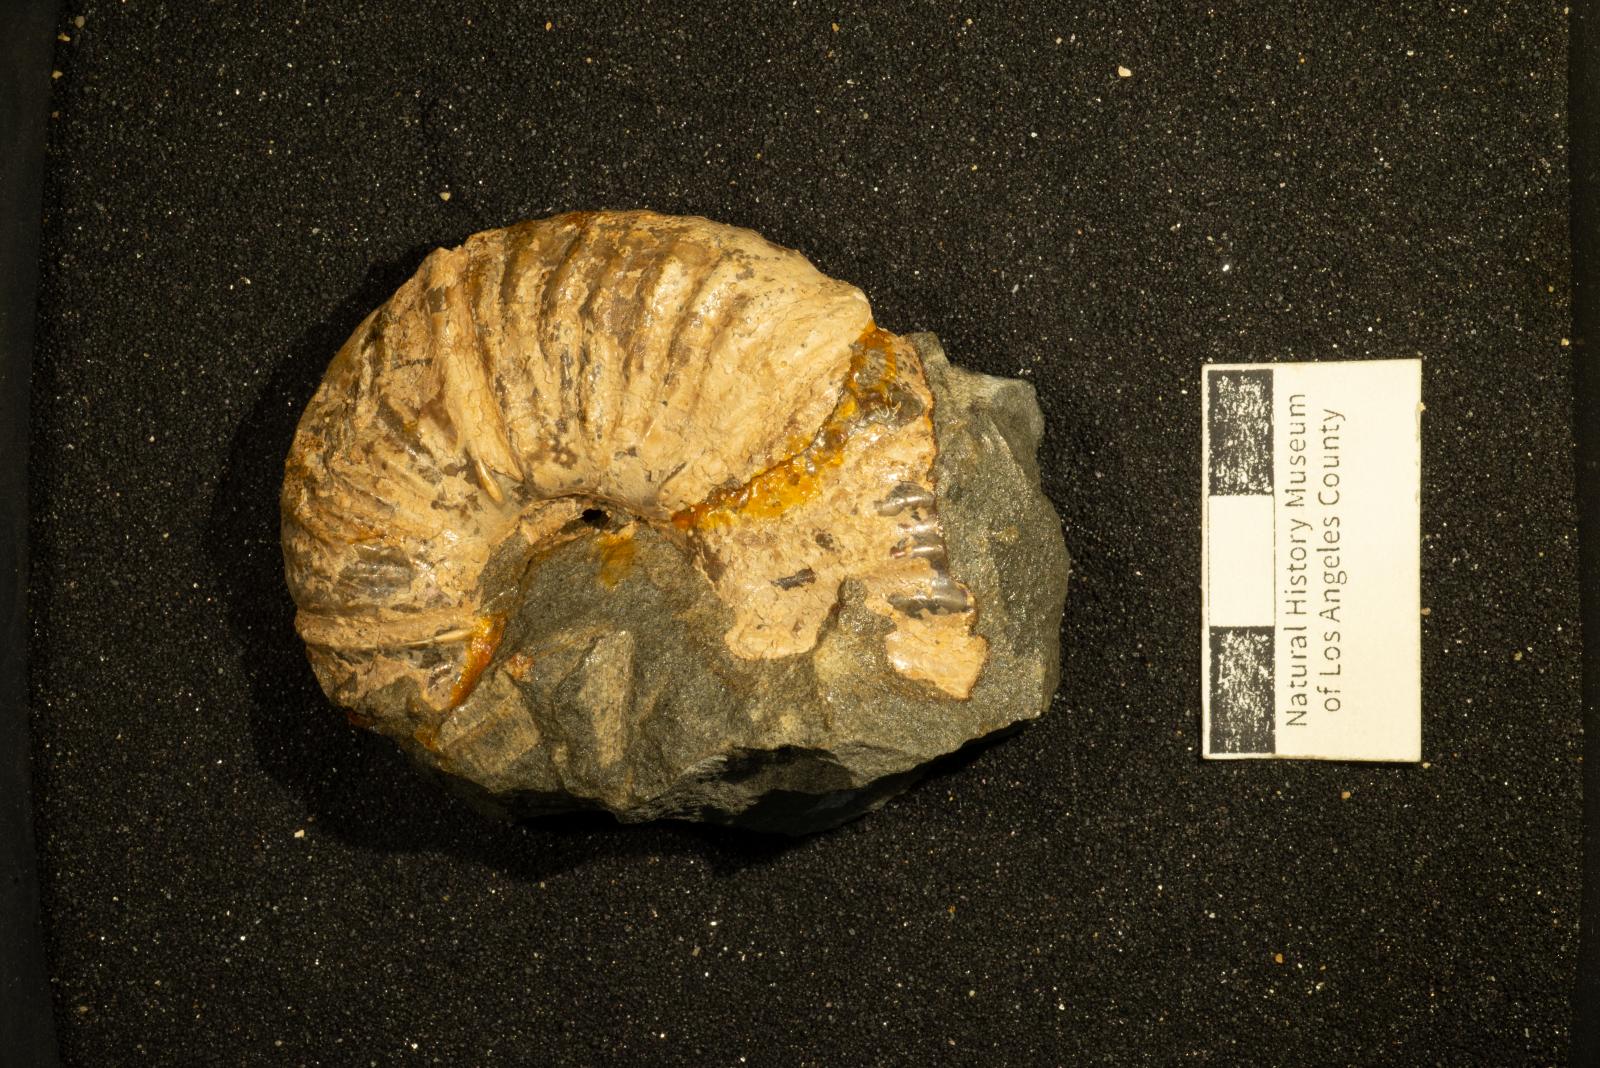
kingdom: Animalia
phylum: Mollusca
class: Cephalopoda
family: Pachydiscidae
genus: Canadoceras
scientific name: Canadoceras yokoyamai
